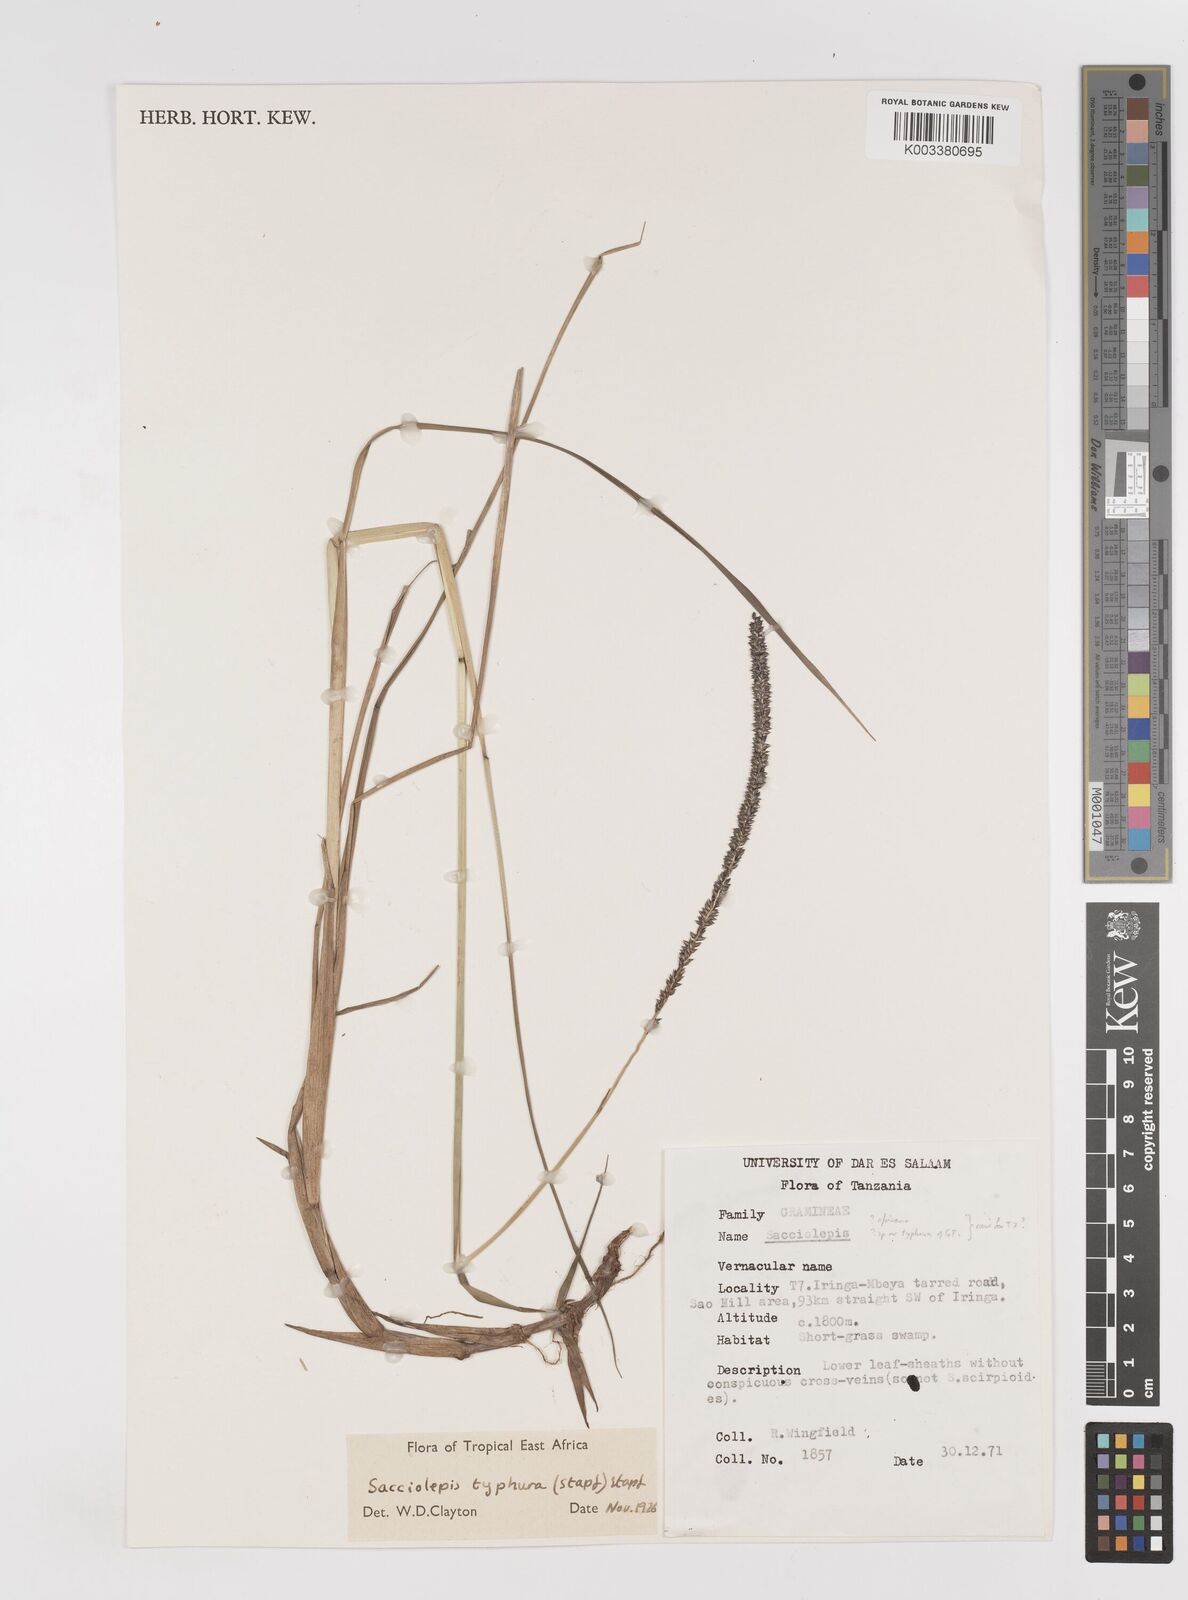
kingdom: Plantae
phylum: Tracheophyta
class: Liliopsida
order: Poales
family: Poaceae
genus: Sacciolepis
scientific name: Sacciolepis typhura
